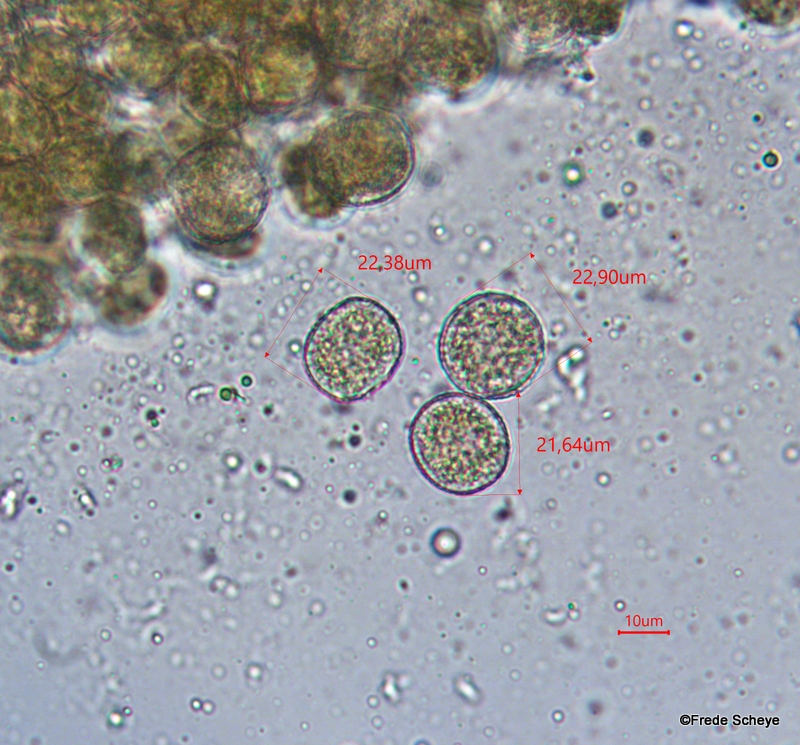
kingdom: Fungi
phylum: Basidiomycota
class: Pucciniomycetes
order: Pucciniales
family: Melampsoraceae
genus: Melampsora
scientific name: Melampsora populnea
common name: poppel-skorperust
